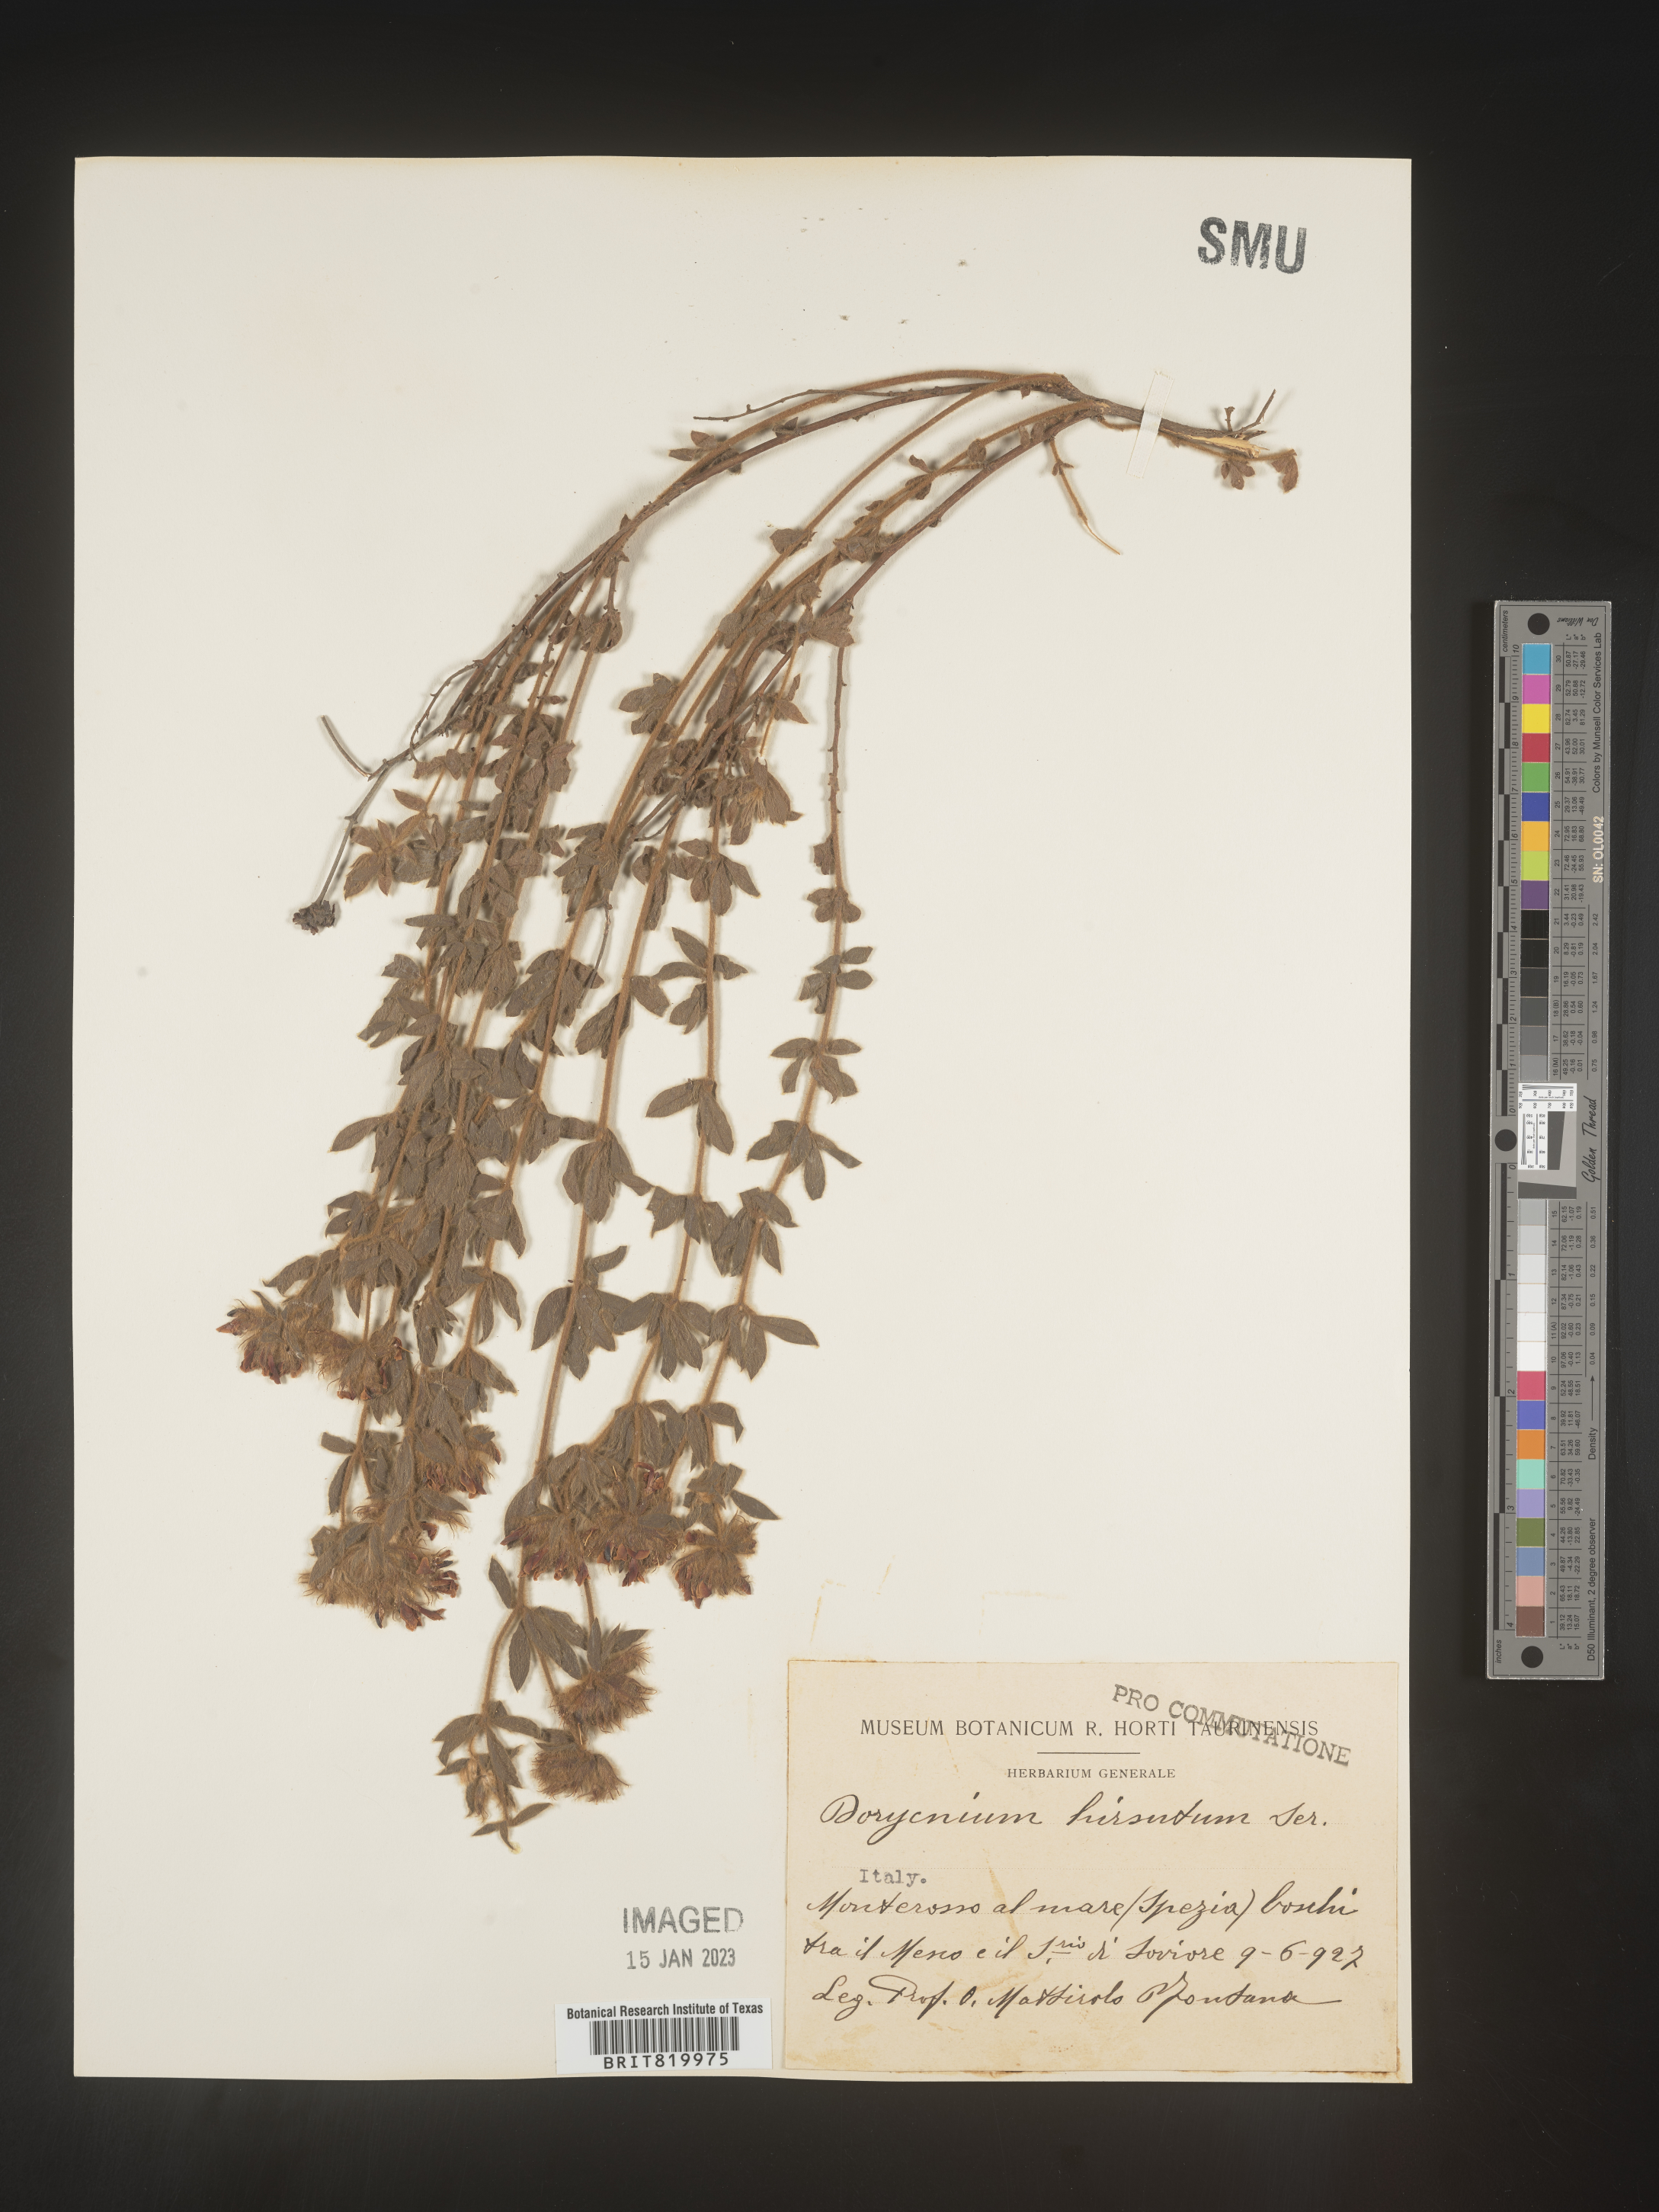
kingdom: Plantae
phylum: Tracheophyta
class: Magnoliopsida
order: Fabales
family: Fabaceae
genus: Lotus
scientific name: Lotus
